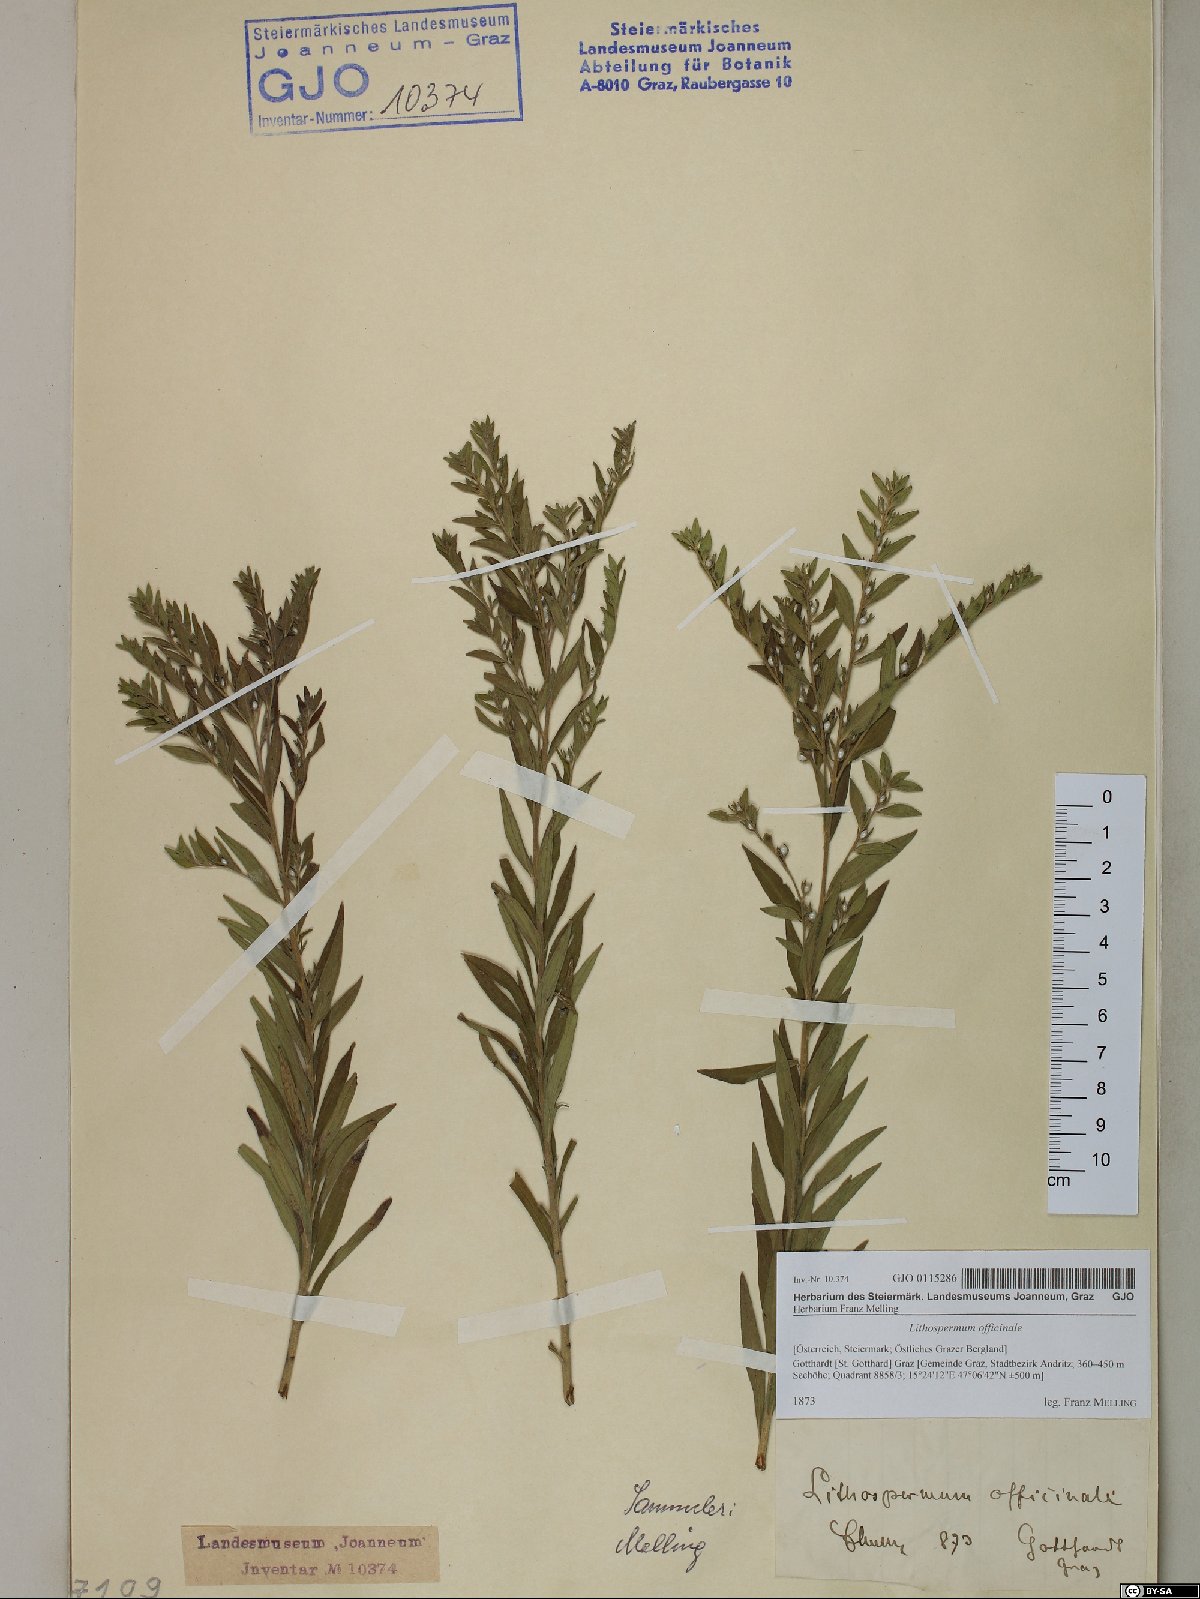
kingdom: Plantae
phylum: Tracheophyta
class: Magnoliopsida
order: Boraginales
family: Boraginaceae
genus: Lithospermum
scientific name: Lithospermum officinale
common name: Common gromwell
